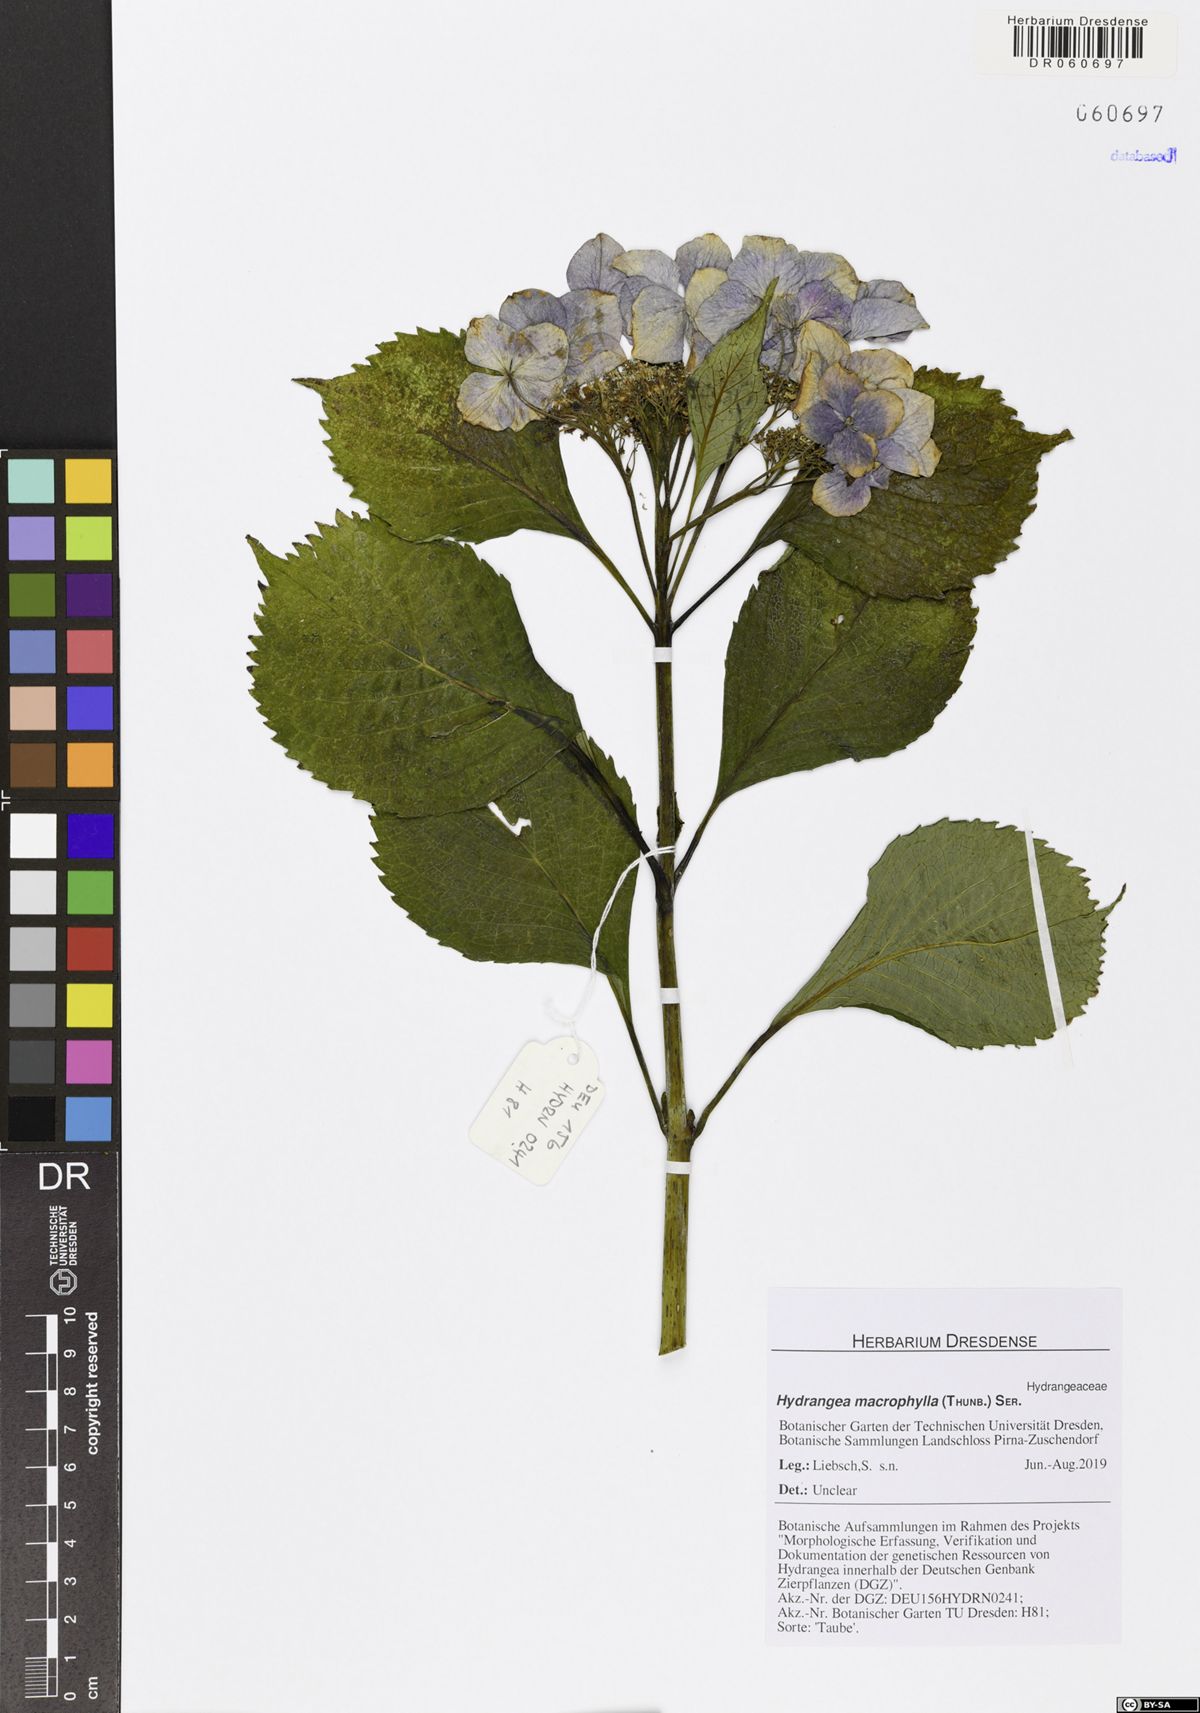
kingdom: Plantae
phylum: Tracheophyta
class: Magnoliopsida
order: Cornales
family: Hydrangeaceae
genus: Hydrangea
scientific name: Hydrangea macrophylla
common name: Hydrangea
